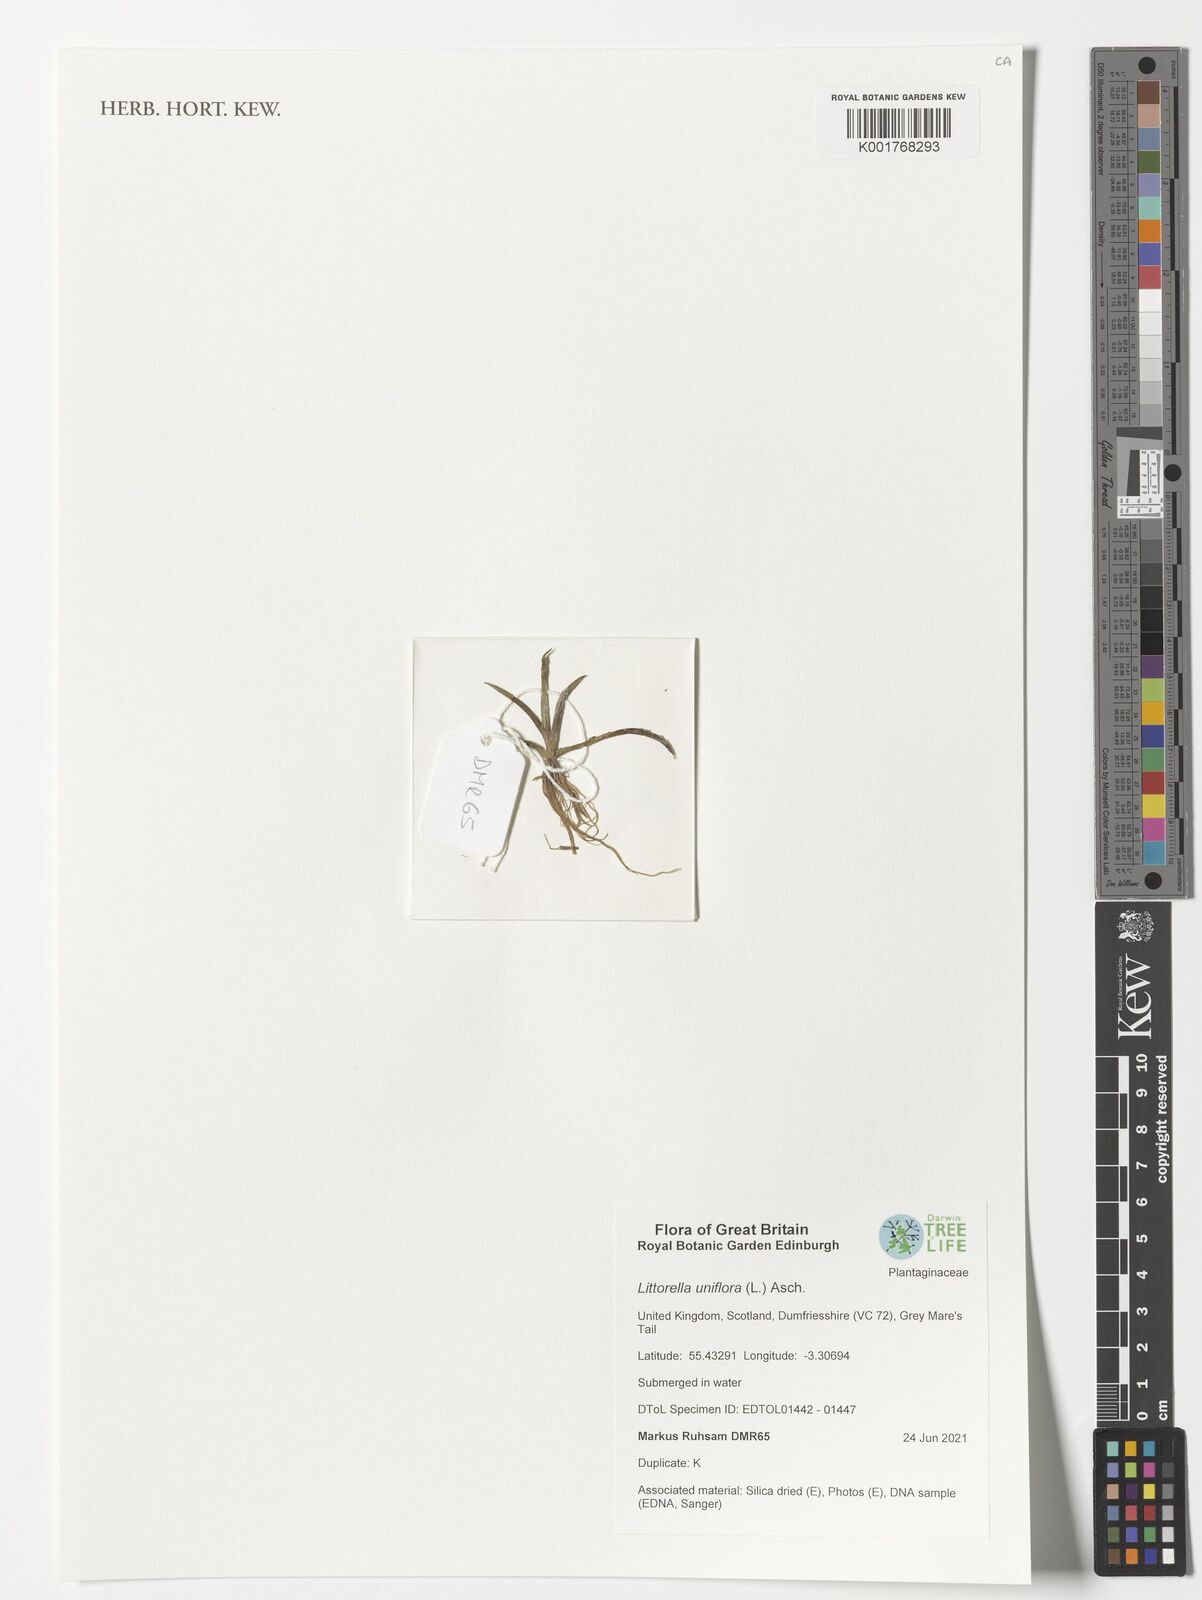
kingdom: Plantae
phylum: Tracheophyta
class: Magnoliopsida
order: Lamiales
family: Plantaginaceae
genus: Littorella
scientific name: Littorella uniflora
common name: Shoreweed
